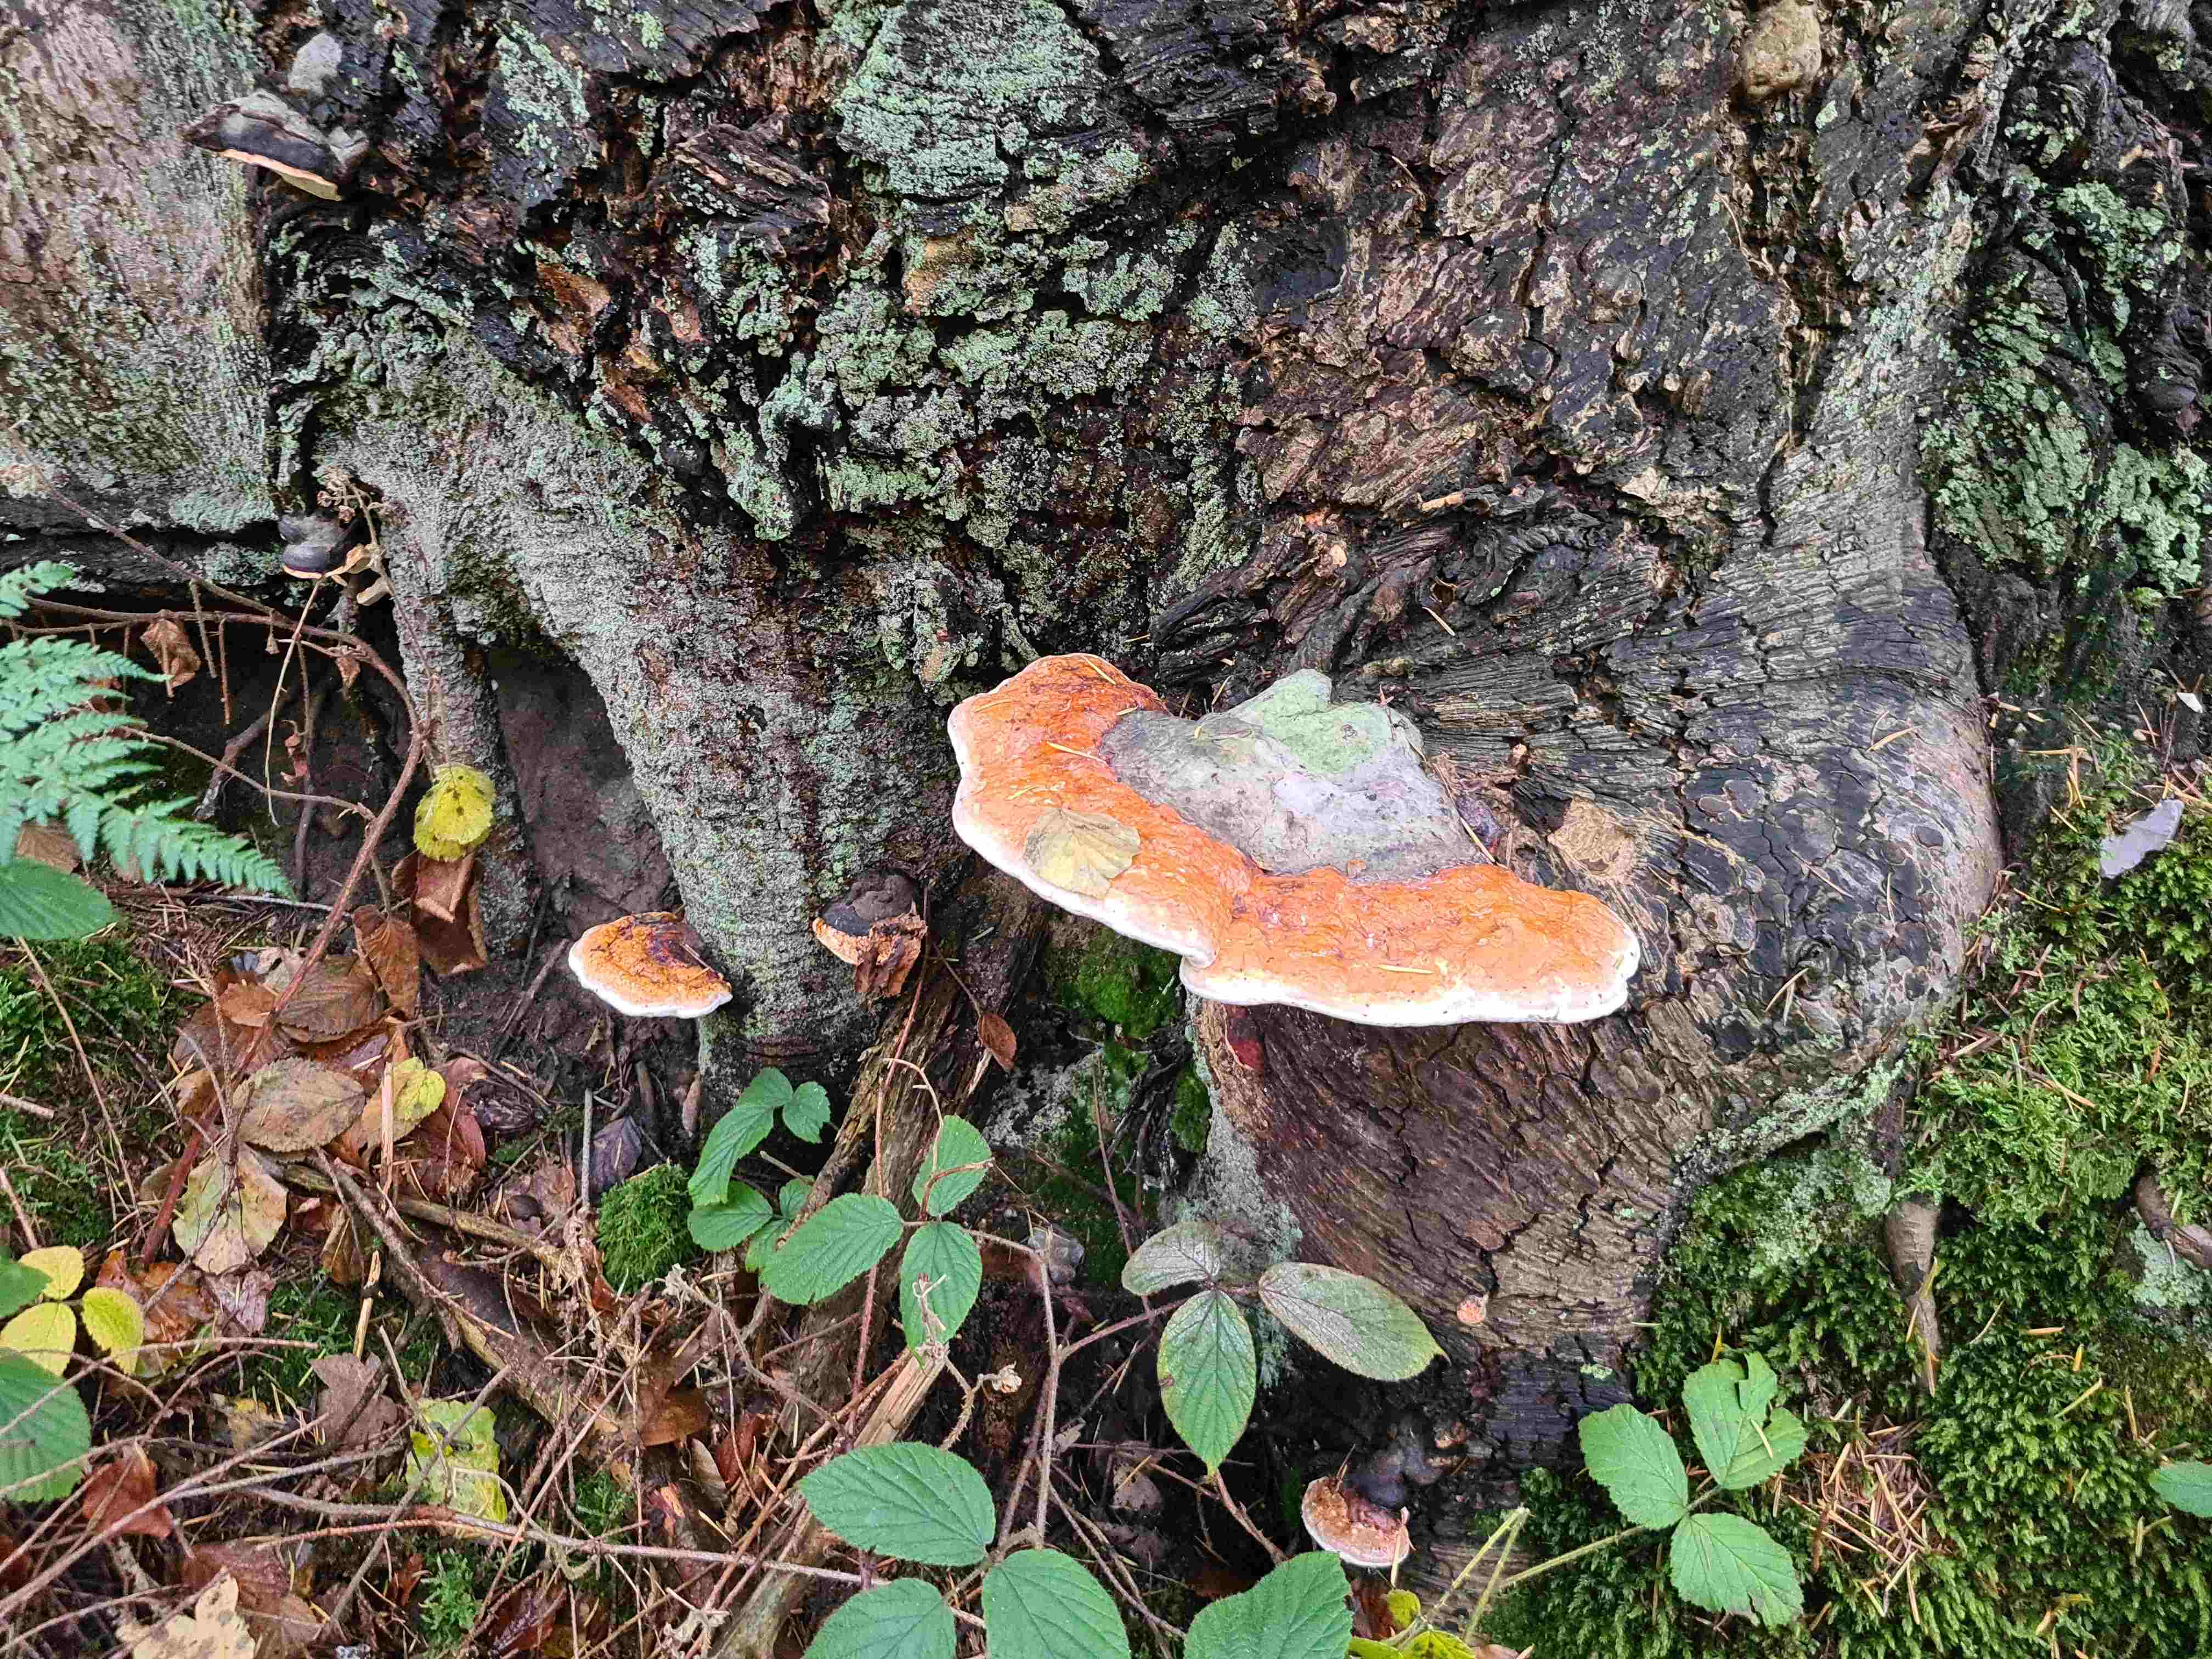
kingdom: Fungi
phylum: Basidiomycota
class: Agaricomycetes
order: Polyporales
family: Fomitopsidaceae
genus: Fomitopsis
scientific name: Fomitopsis pinicola
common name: randbæltet hovporesvamp
